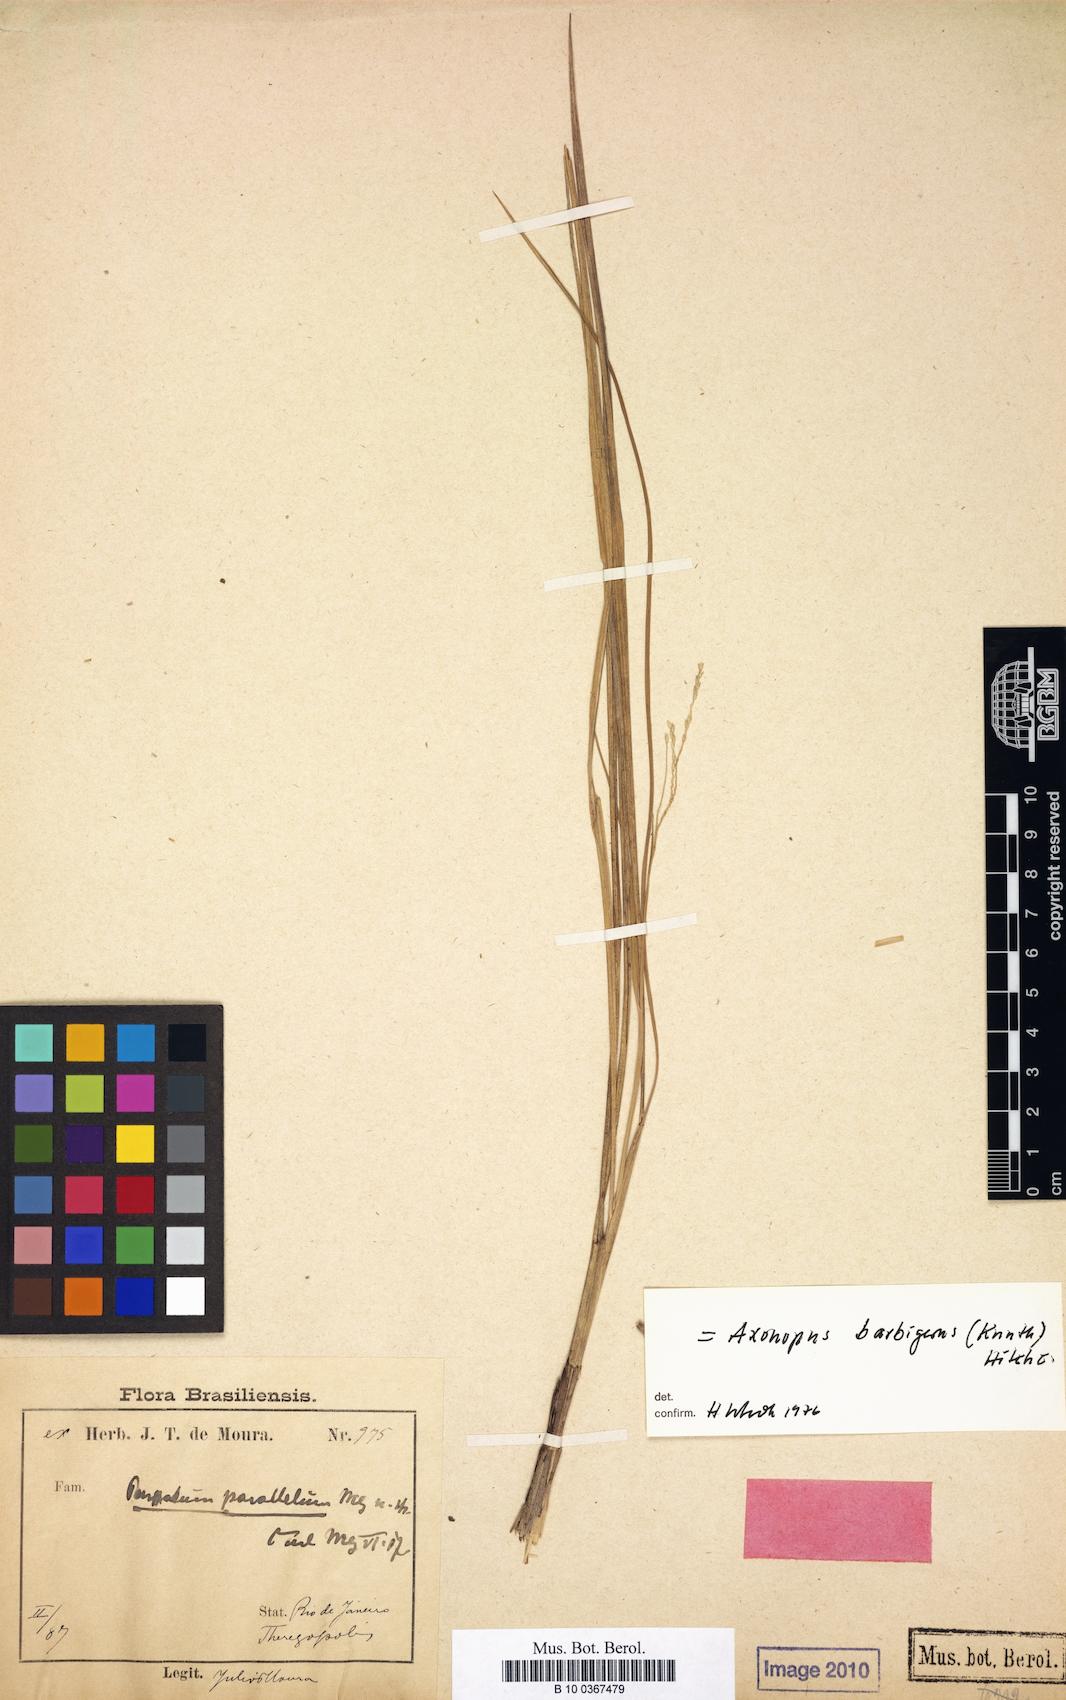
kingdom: Plantae
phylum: Tracheophyta
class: Liliopsida
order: Poales
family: Poaceae
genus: Paspalum
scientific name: Paspalum parallelum
